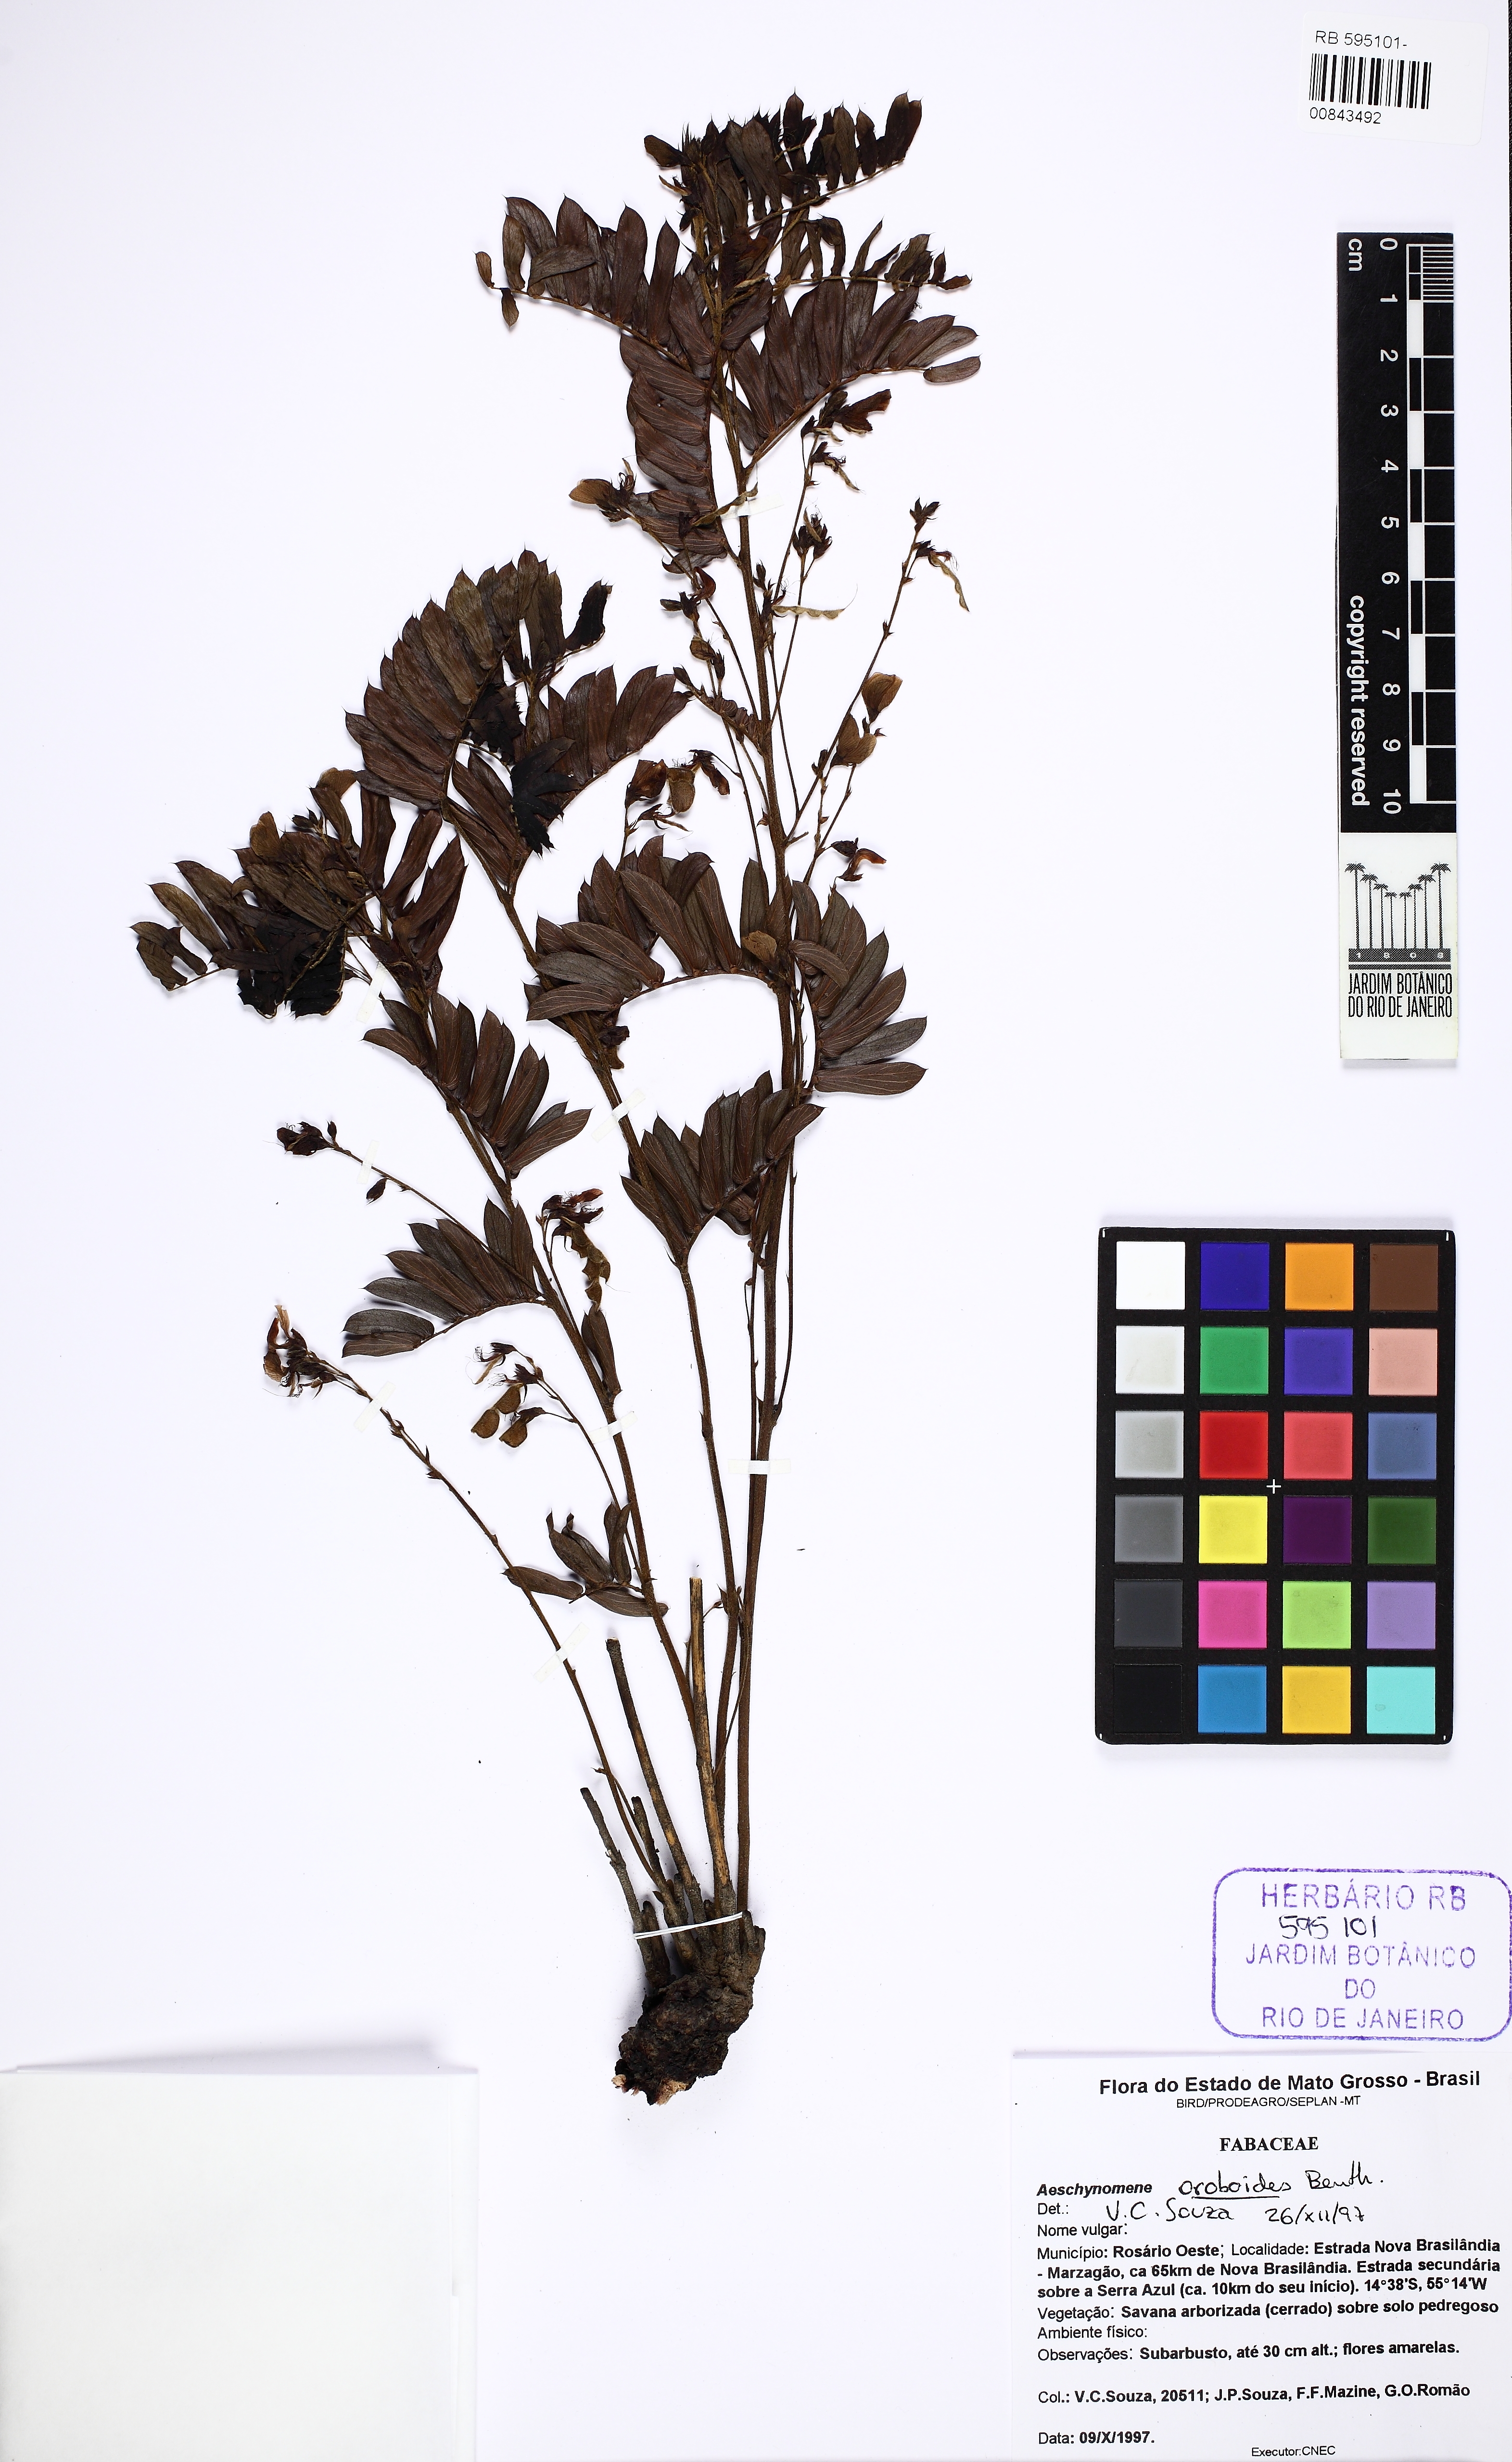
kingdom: Plantae
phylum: Tracheophyta
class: Magnoliopsida
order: Fabales
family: Fabaceae
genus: Ctenodon
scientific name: Ctenodon oroboides
